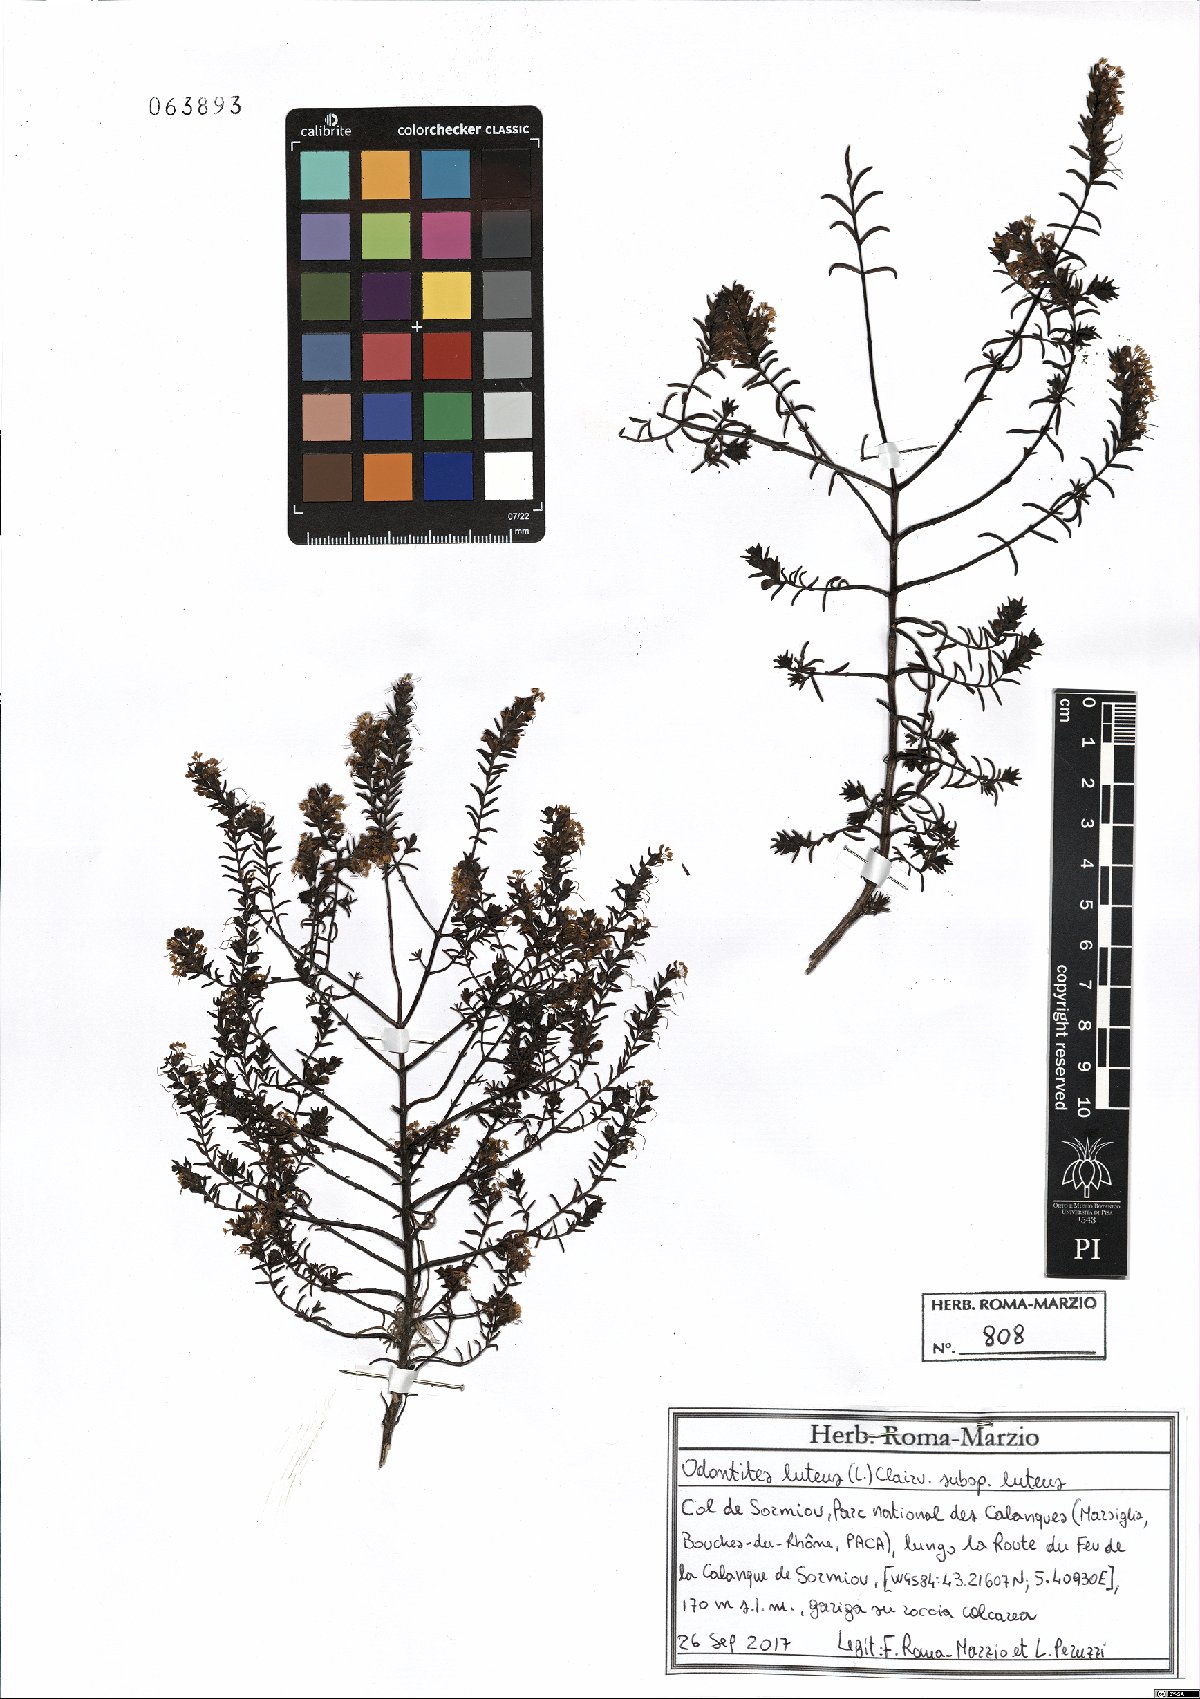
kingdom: Plantae
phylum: Tracheophyta
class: Magnoliopsida
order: Lamiales
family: Orobanchaceae
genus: Odontites
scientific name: Odontites luteus
